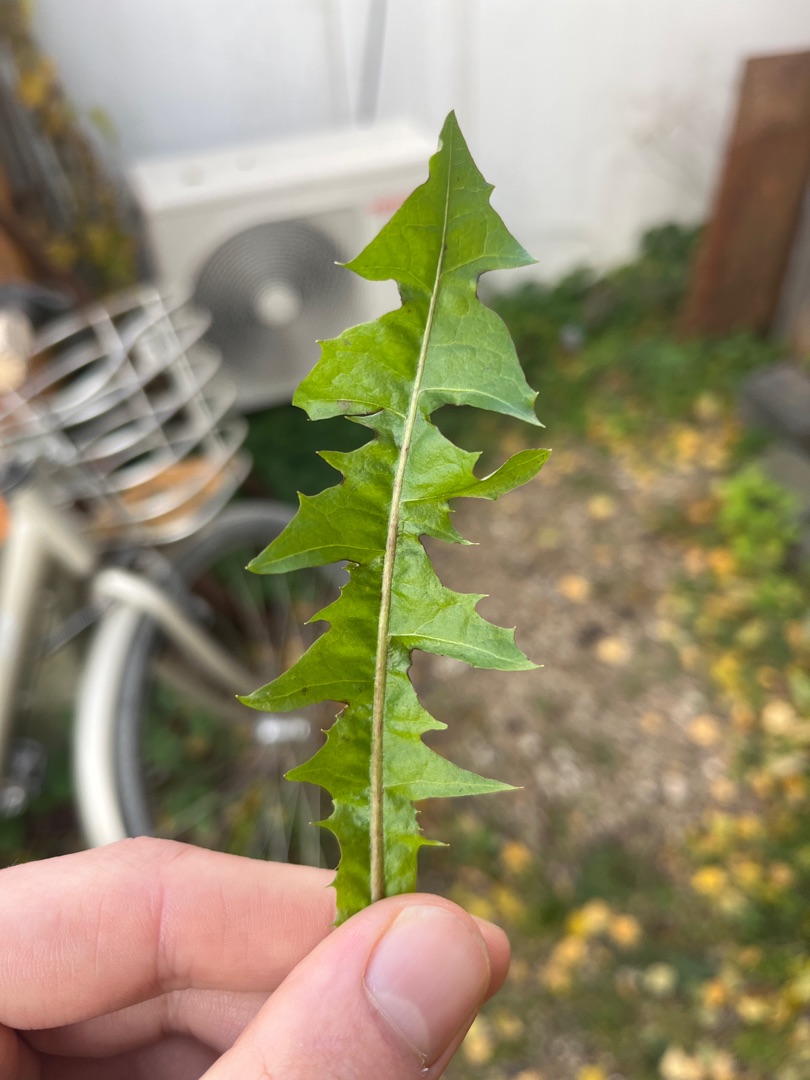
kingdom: Plantae
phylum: Tracheophyta
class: Magnoliopsida
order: Asterales
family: Asteraceae
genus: Taraxacum
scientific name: Taraxacum
